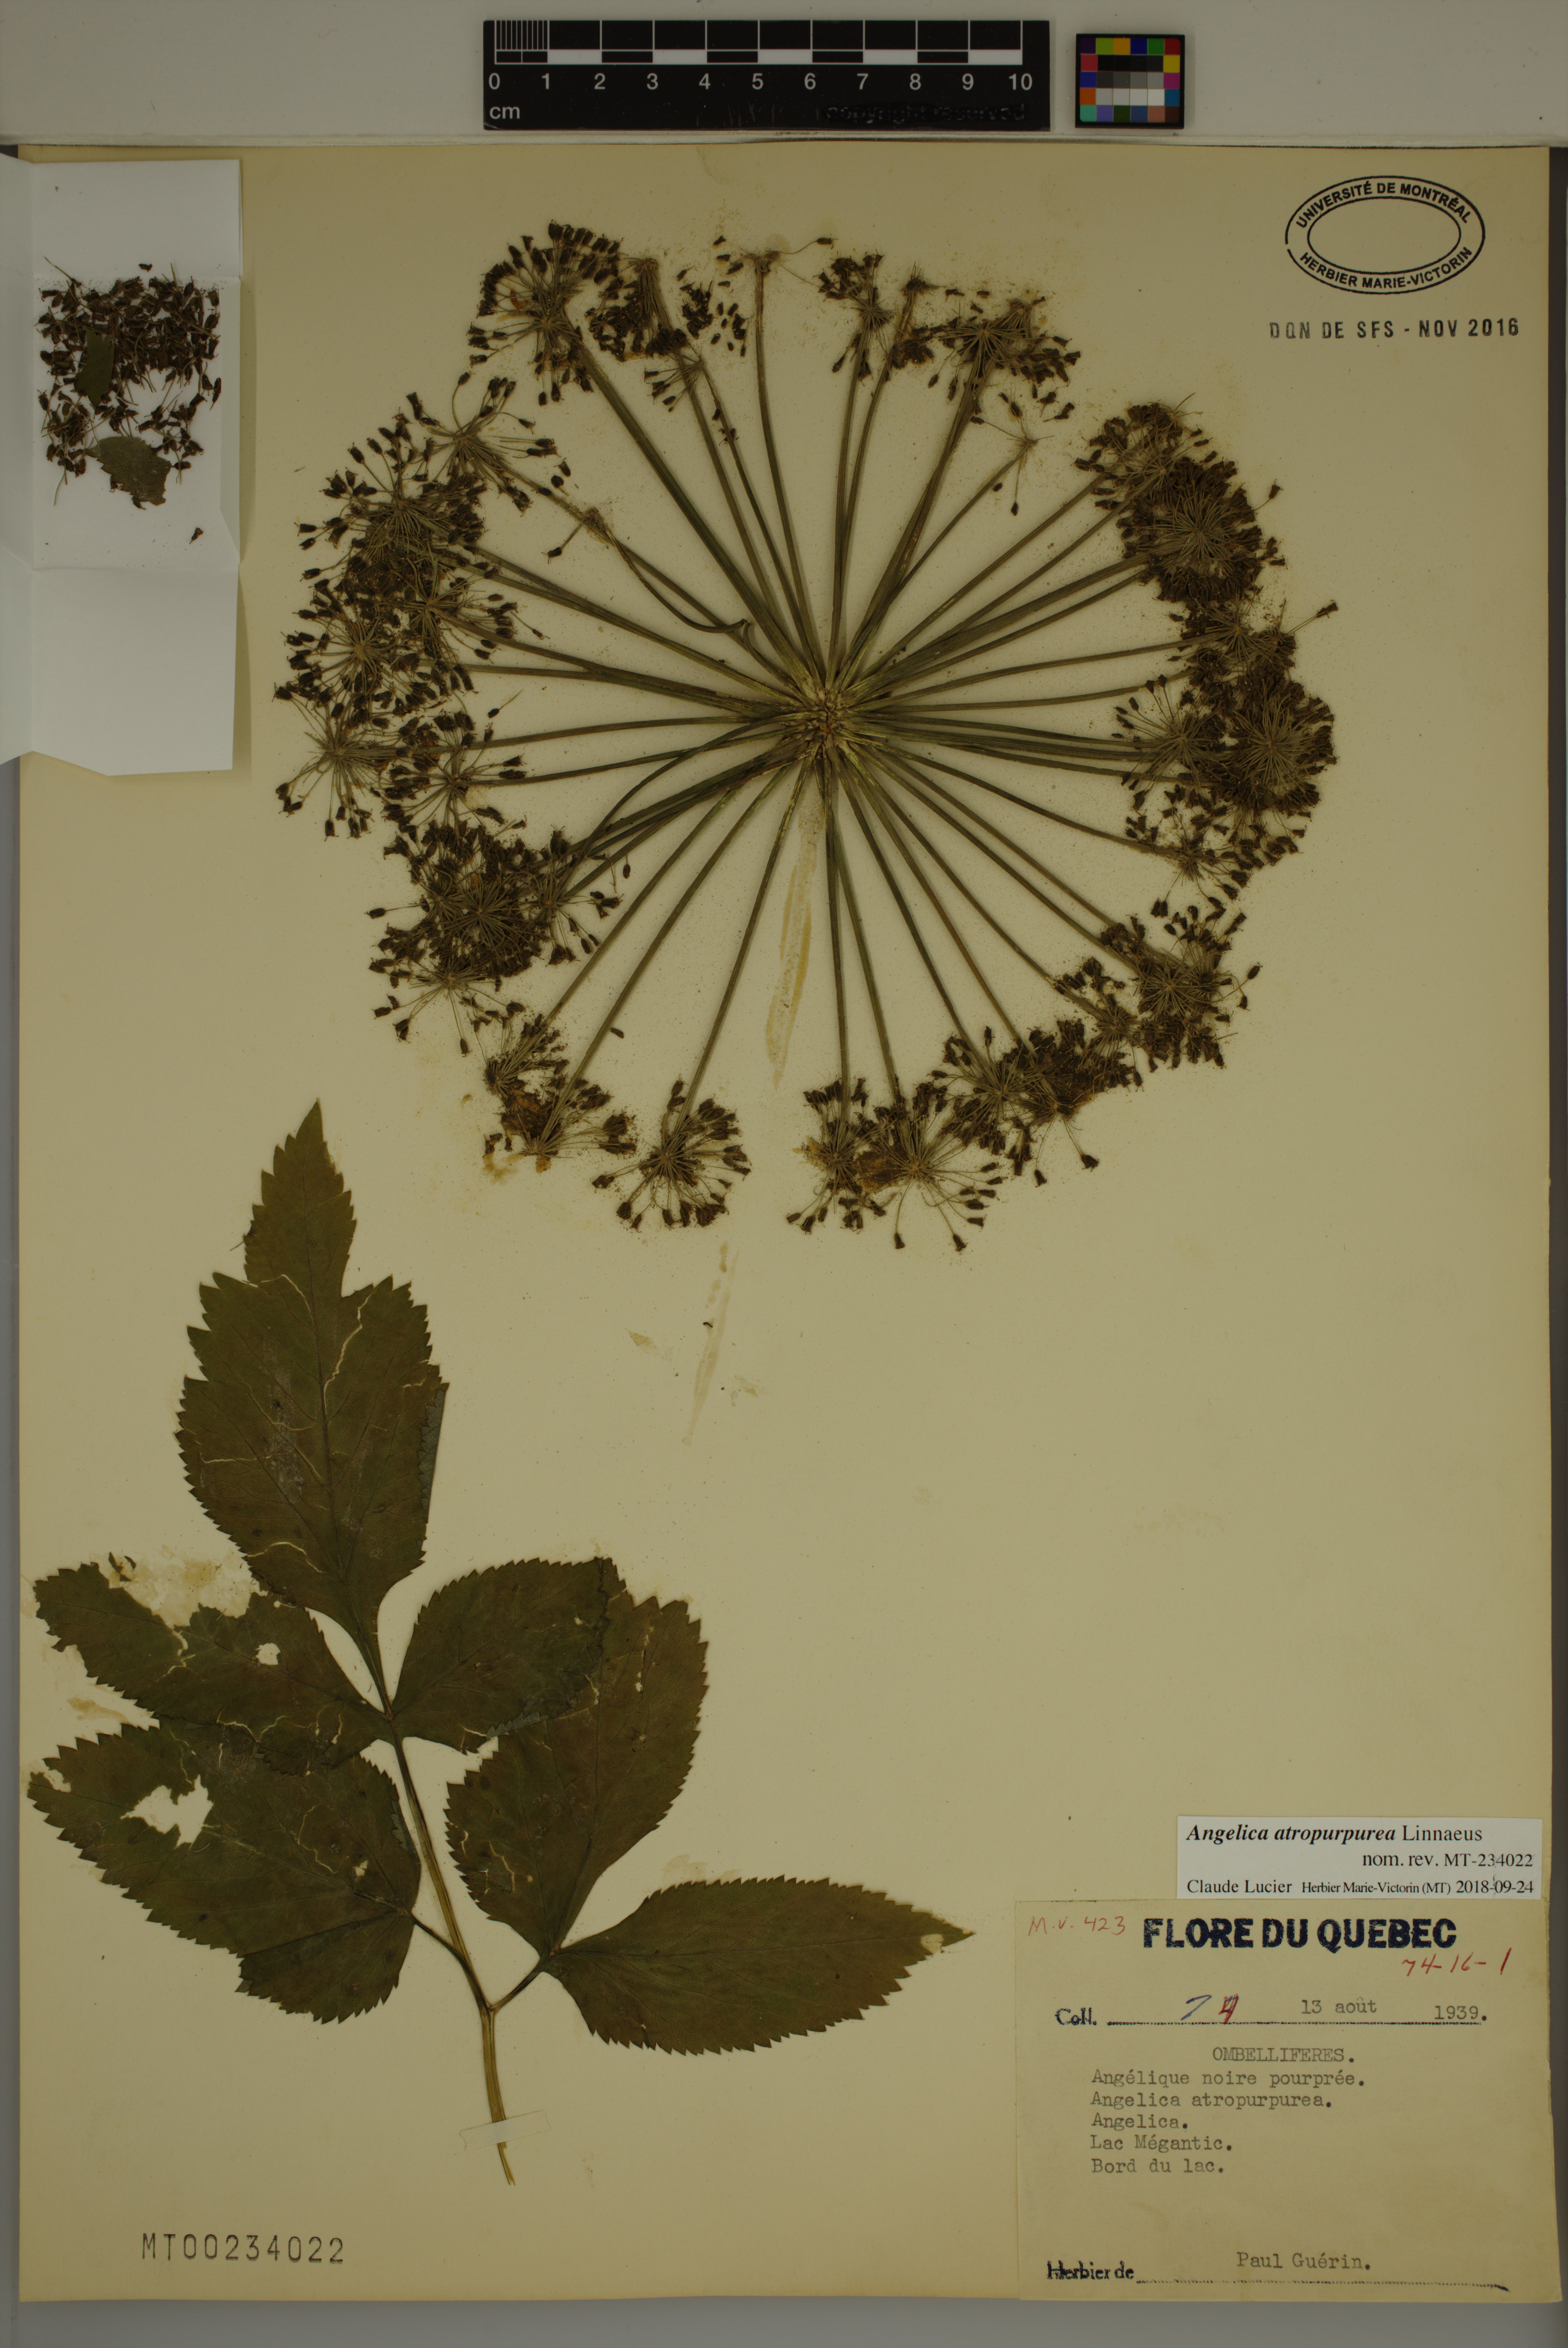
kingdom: Plantae
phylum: Tracheophyta
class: Magnoliopsida
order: Apiales
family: Apiaceae
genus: Angelica
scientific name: Angelica atropurpurea
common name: Great angelica
